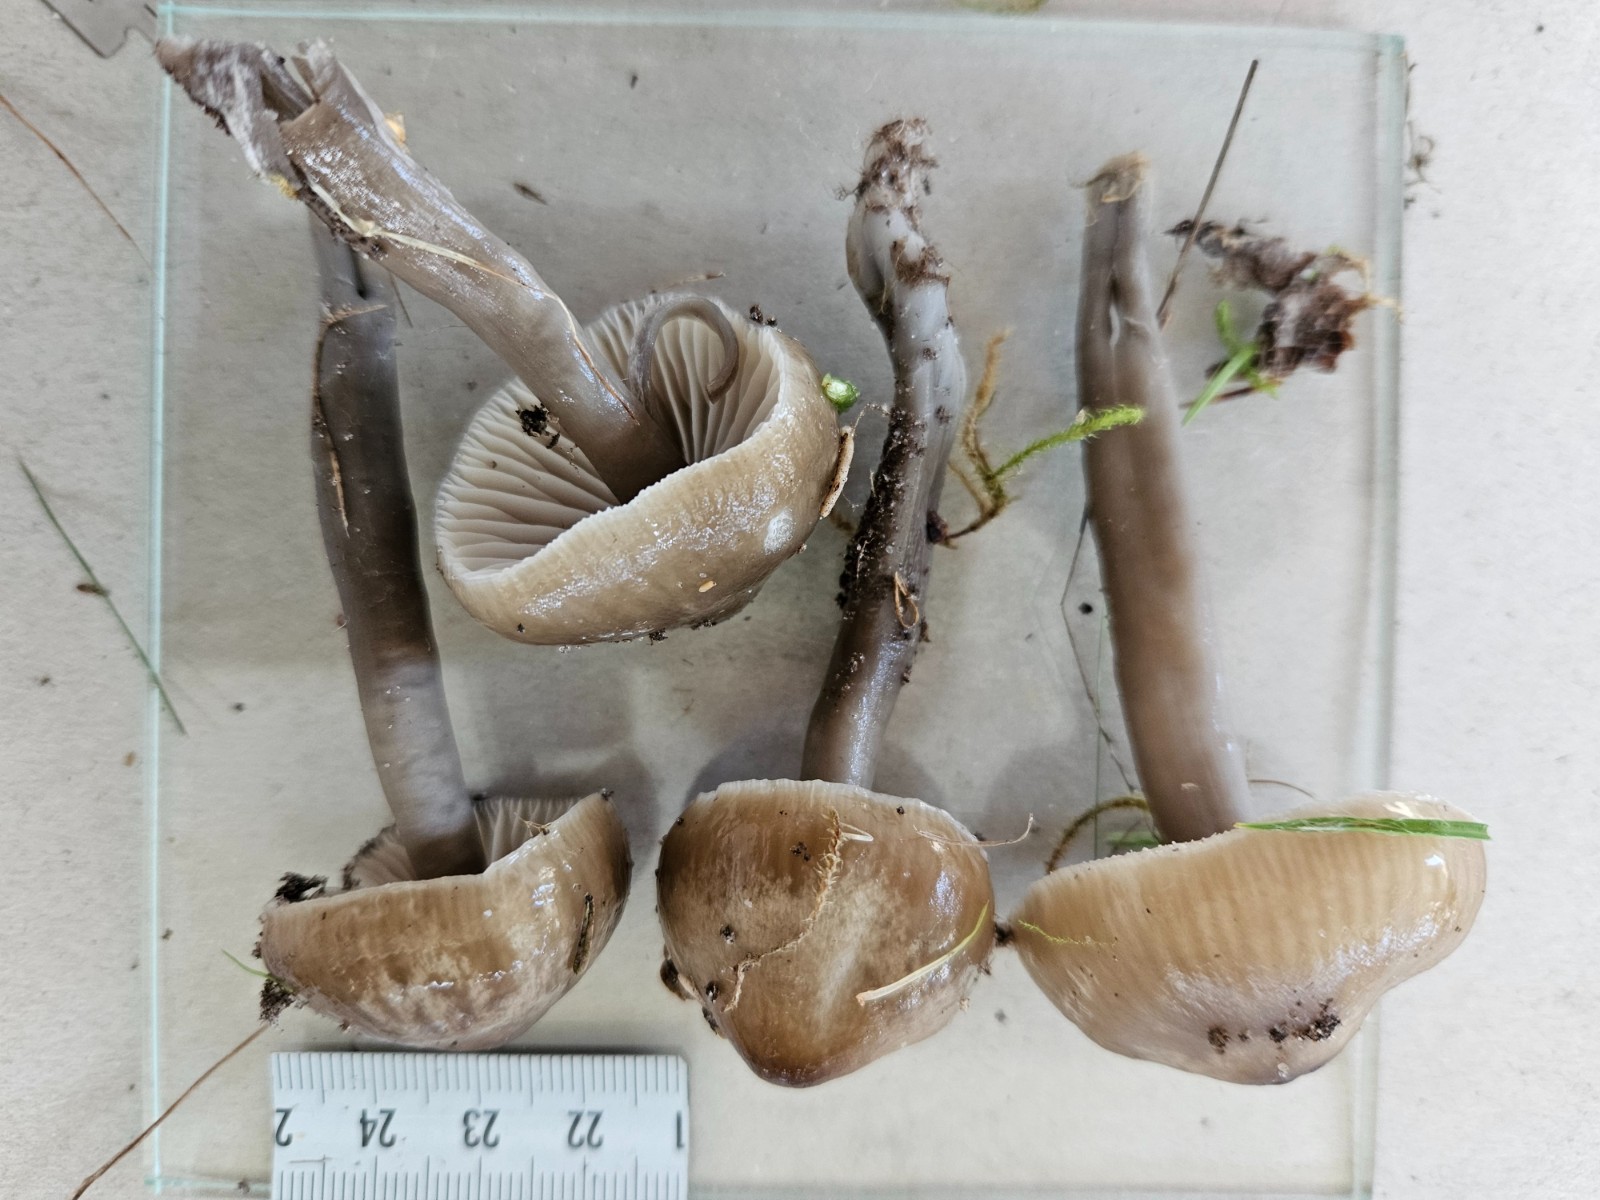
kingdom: Fungi
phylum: Basidiomycota
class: Agaricomycetes
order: Agaricales
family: Hygrophoraceae
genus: Gliophorus
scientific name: Gliophorus irrigatus
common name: slimet vokshat
